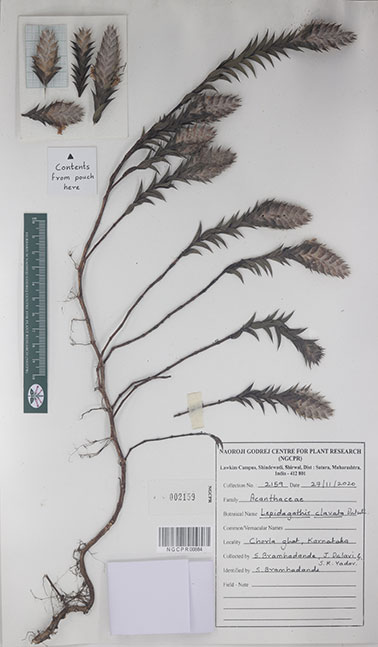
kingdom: Plantae
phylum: Tracheophyta
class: Magnoliopsida
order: Lamiales
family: Acanthaceae
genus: Lepidagathis
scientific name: Lepidagathis clavata
